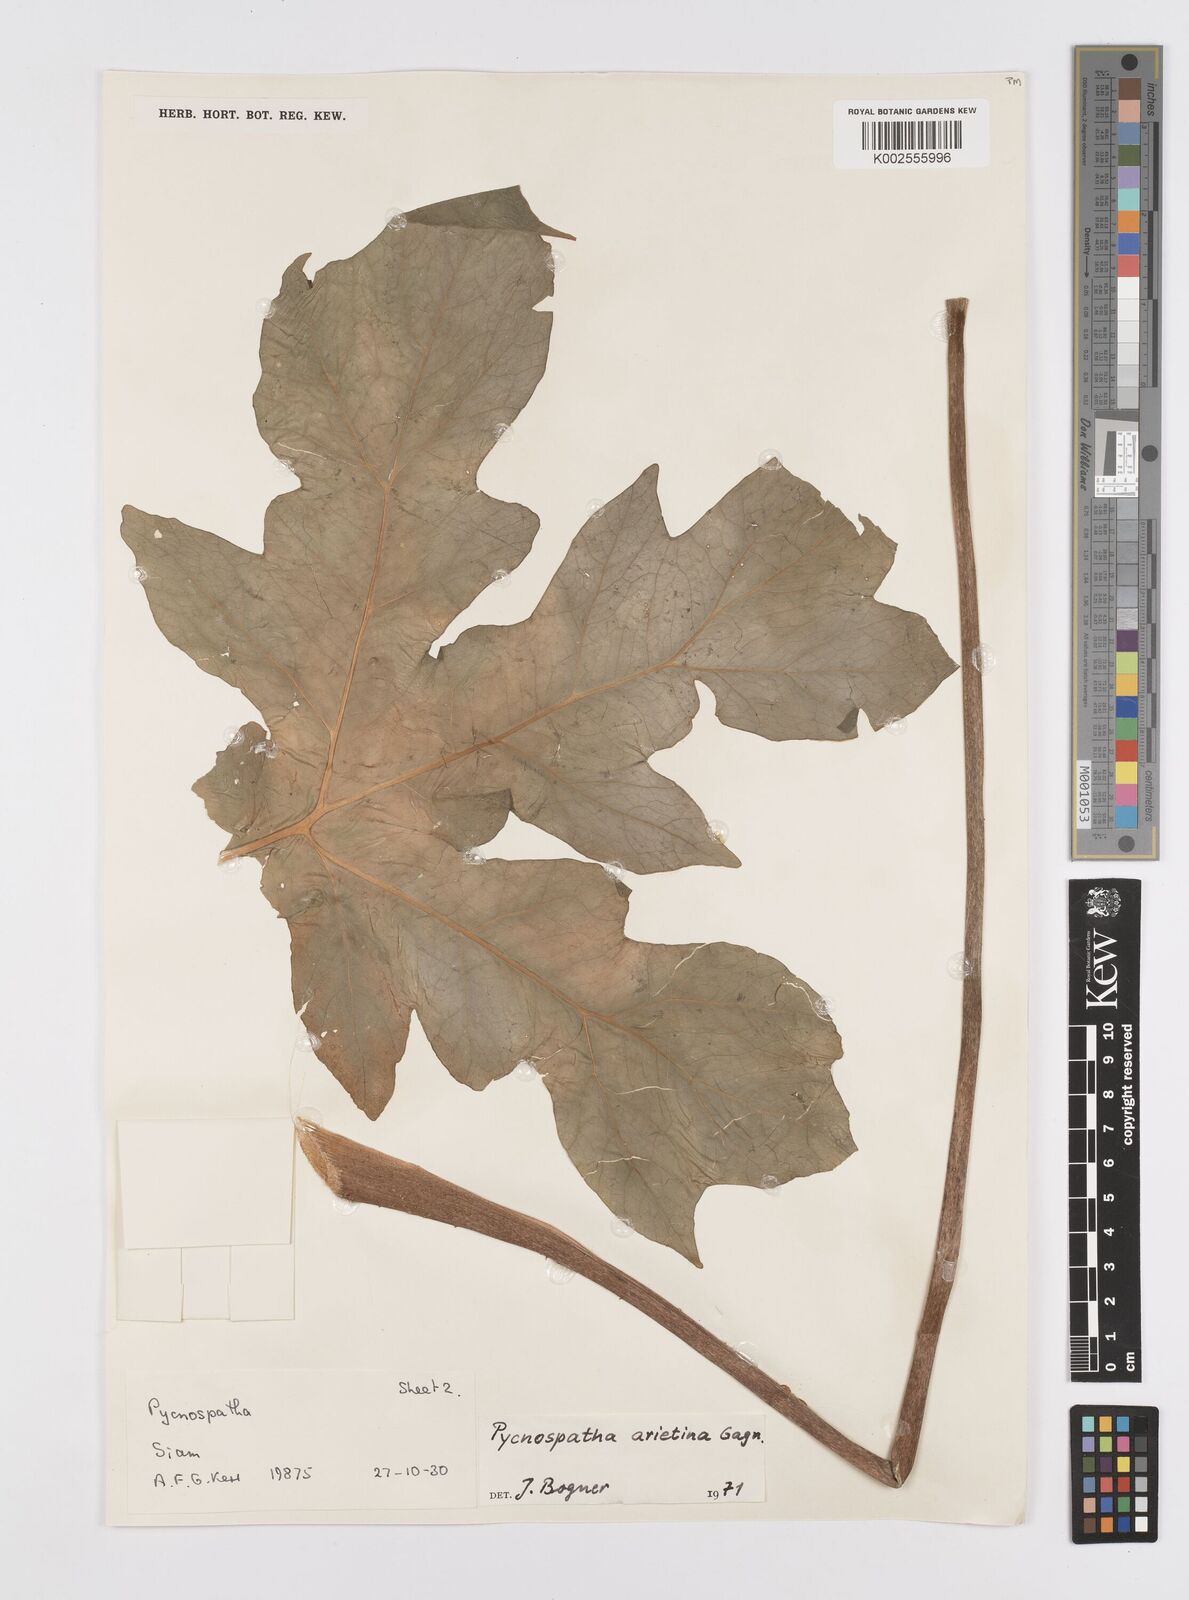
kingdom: Plantae
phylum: Tracheophyta
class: Liliopsida
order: Alismatales
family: Araceae
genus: Pycnospatha
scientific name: Pycnospatha arietina
